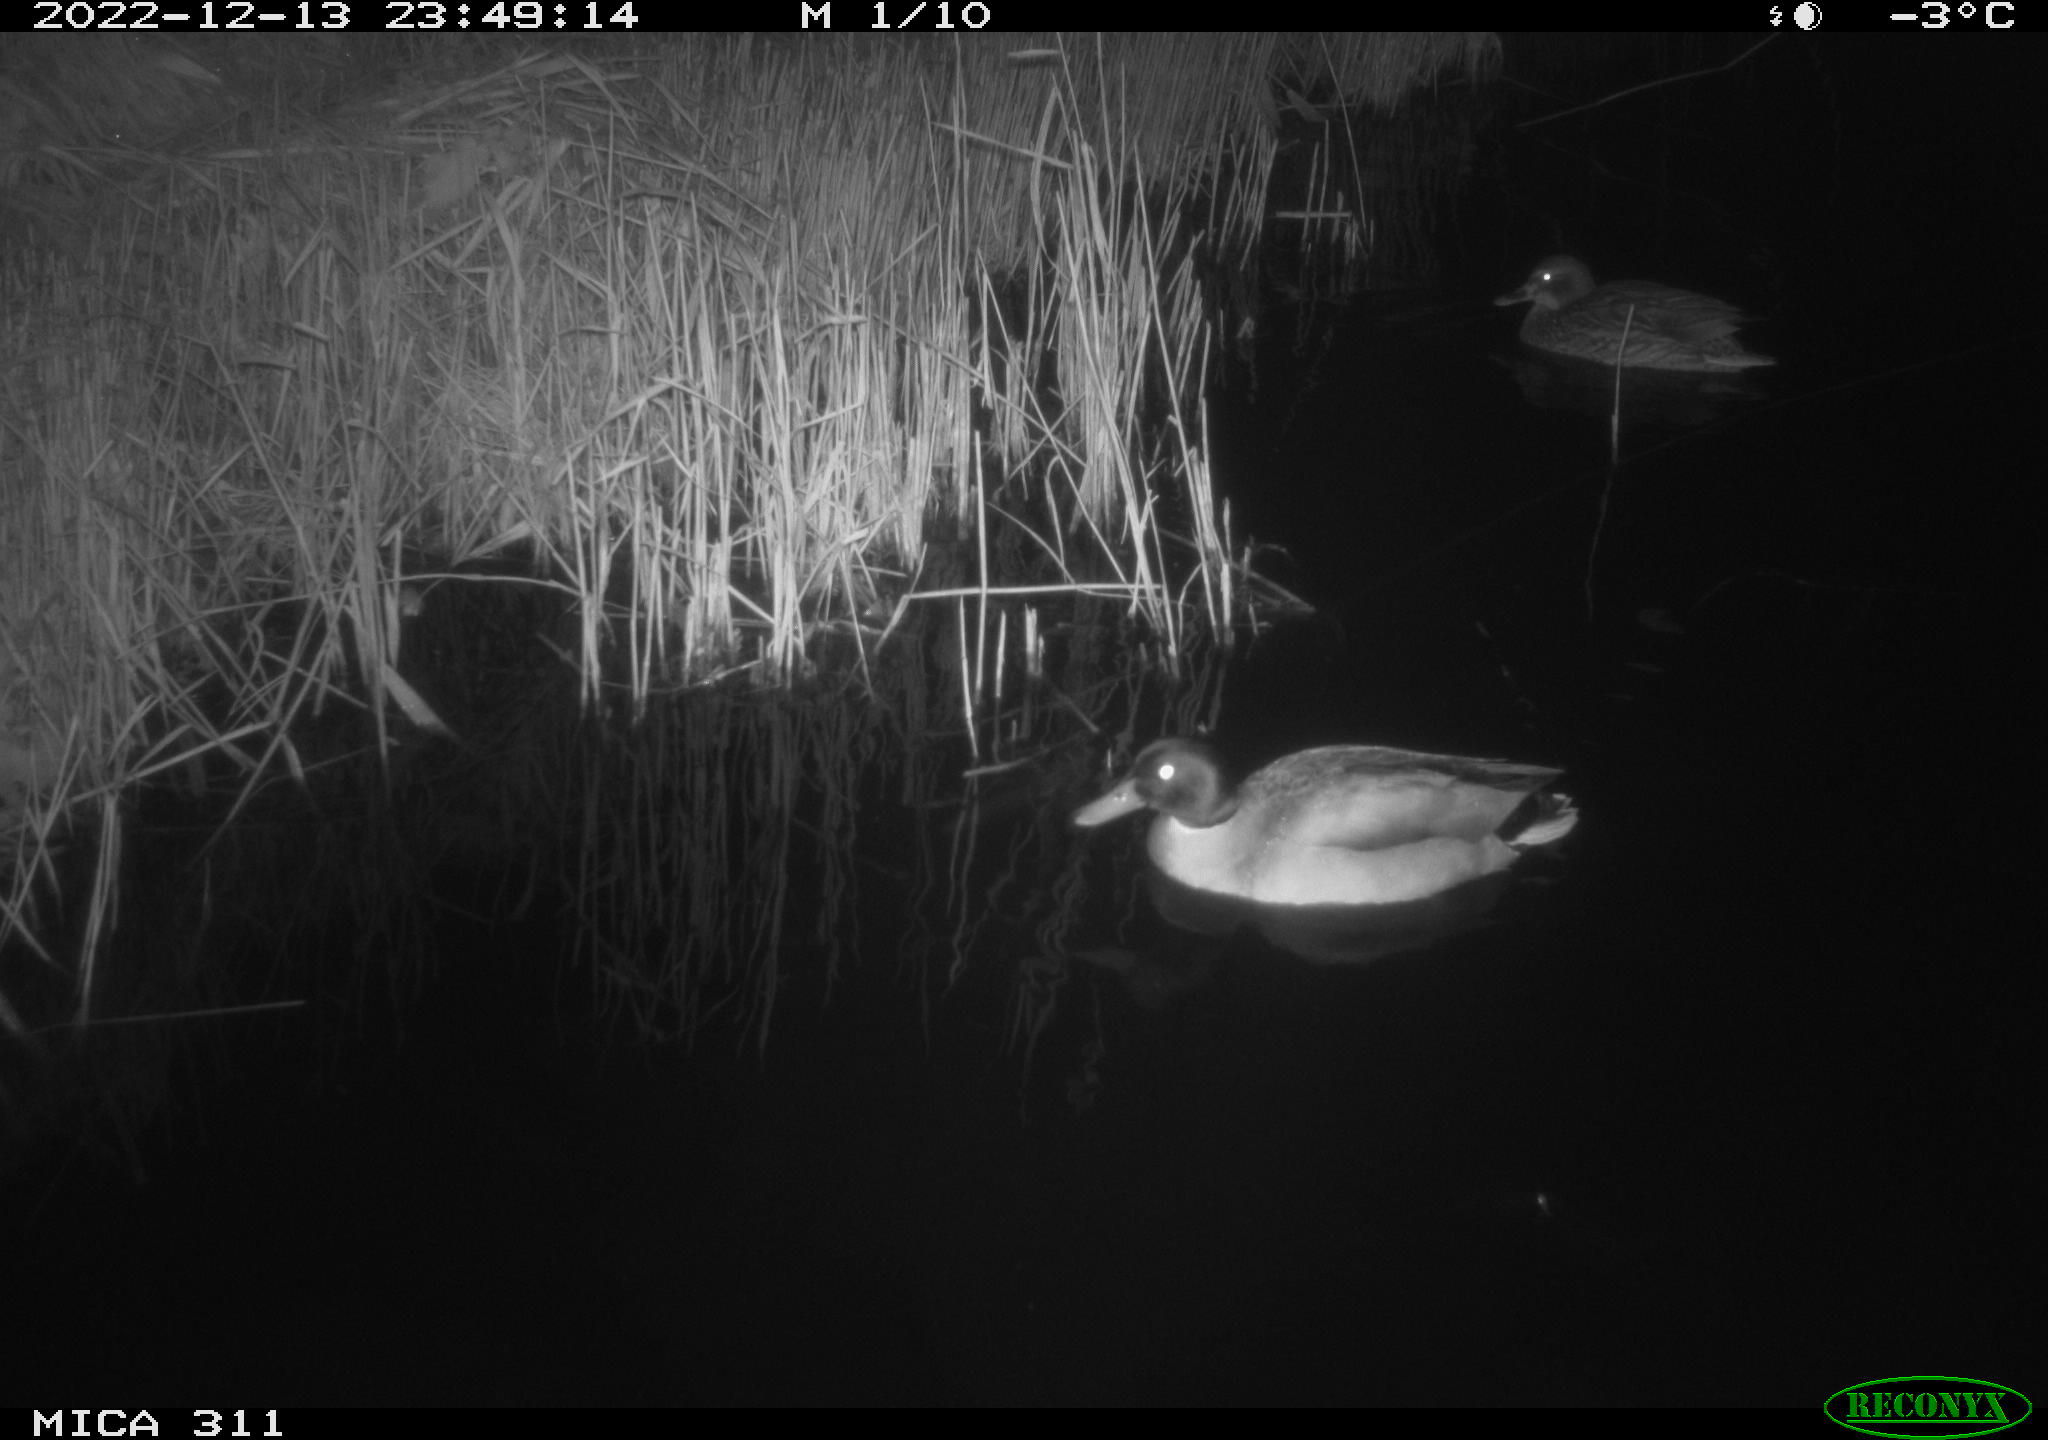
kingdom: Animalia
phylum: Chordata
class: Aves
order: Anseriformes
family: Anatidae
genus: Anas
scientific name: Anas
